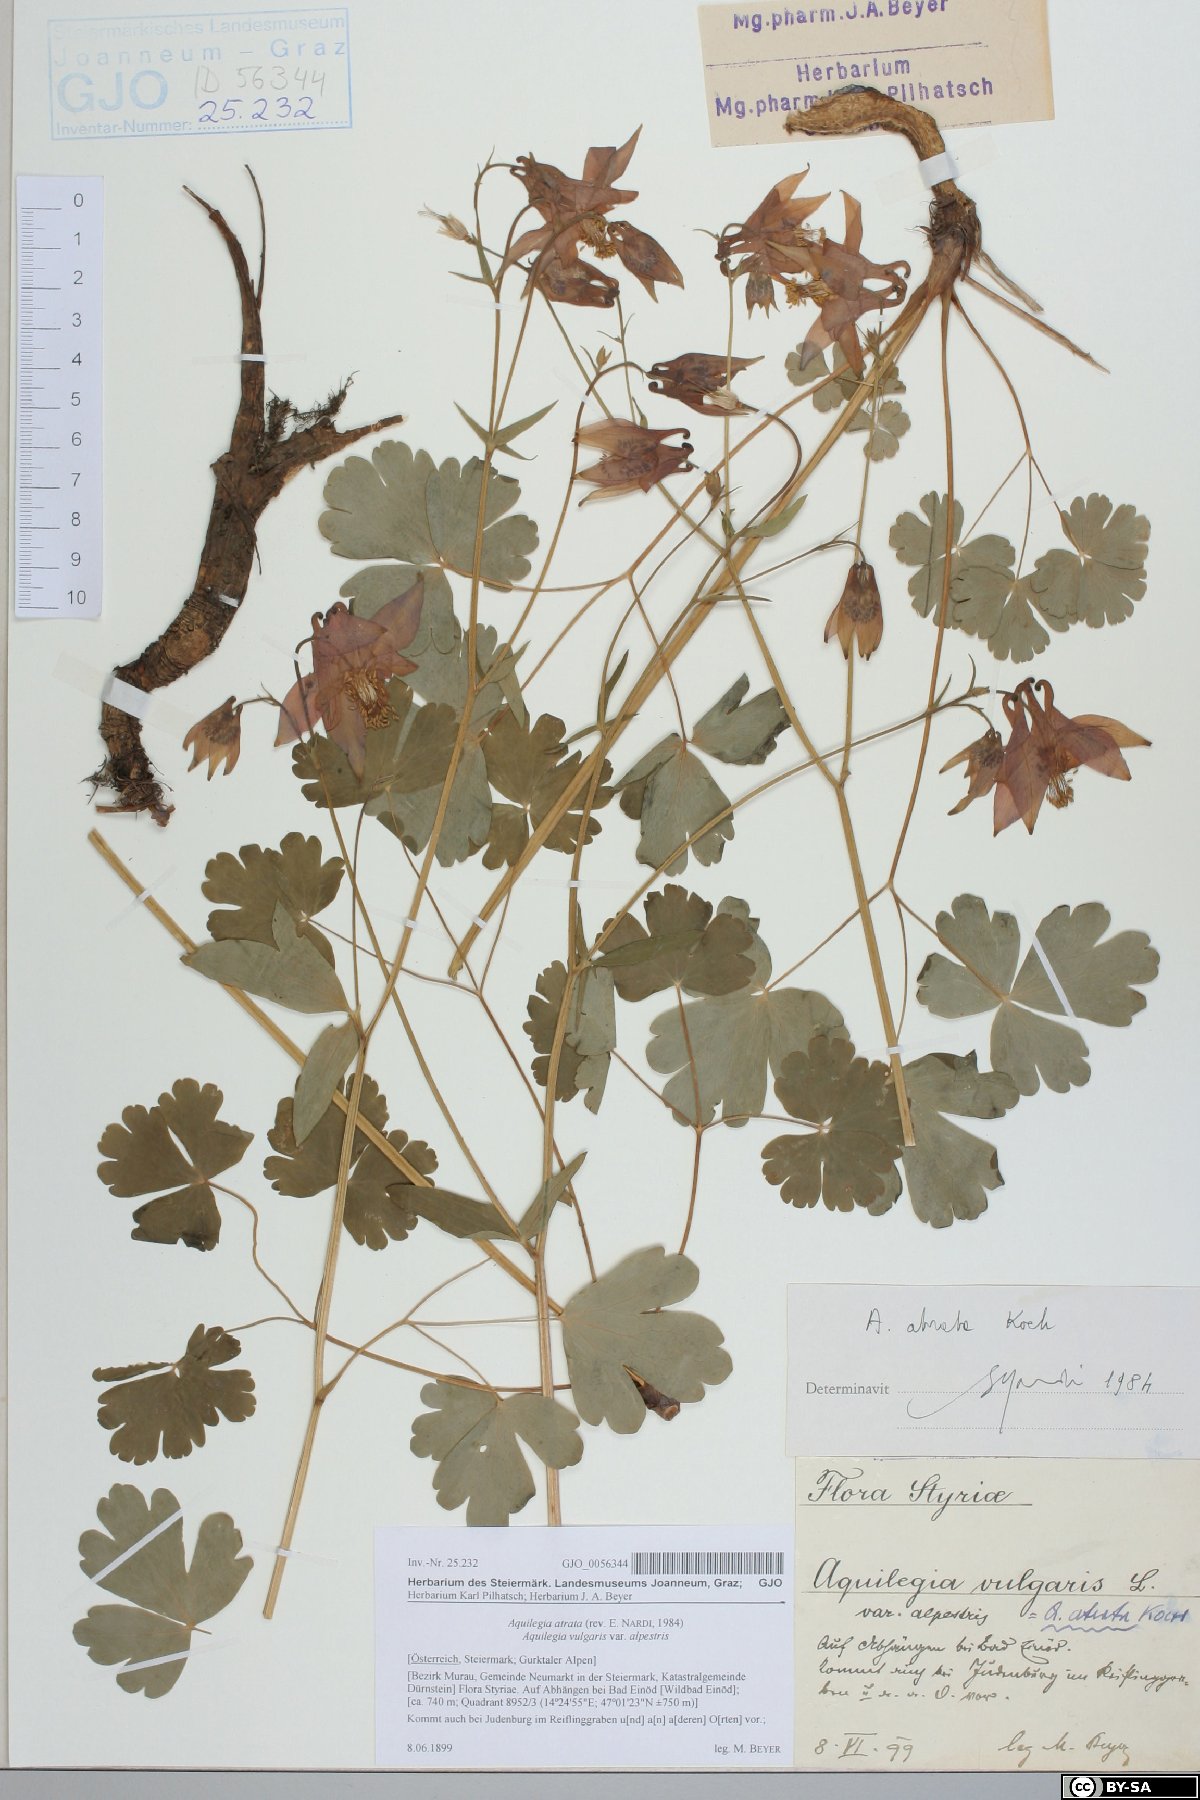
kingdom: Plantae
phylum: Tracheophyta
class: Magnoliopsida
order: Ranunculales
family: Ranunculaceae
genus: Aquilegia
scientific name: Aquilegia atrata
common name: Dark columbine
